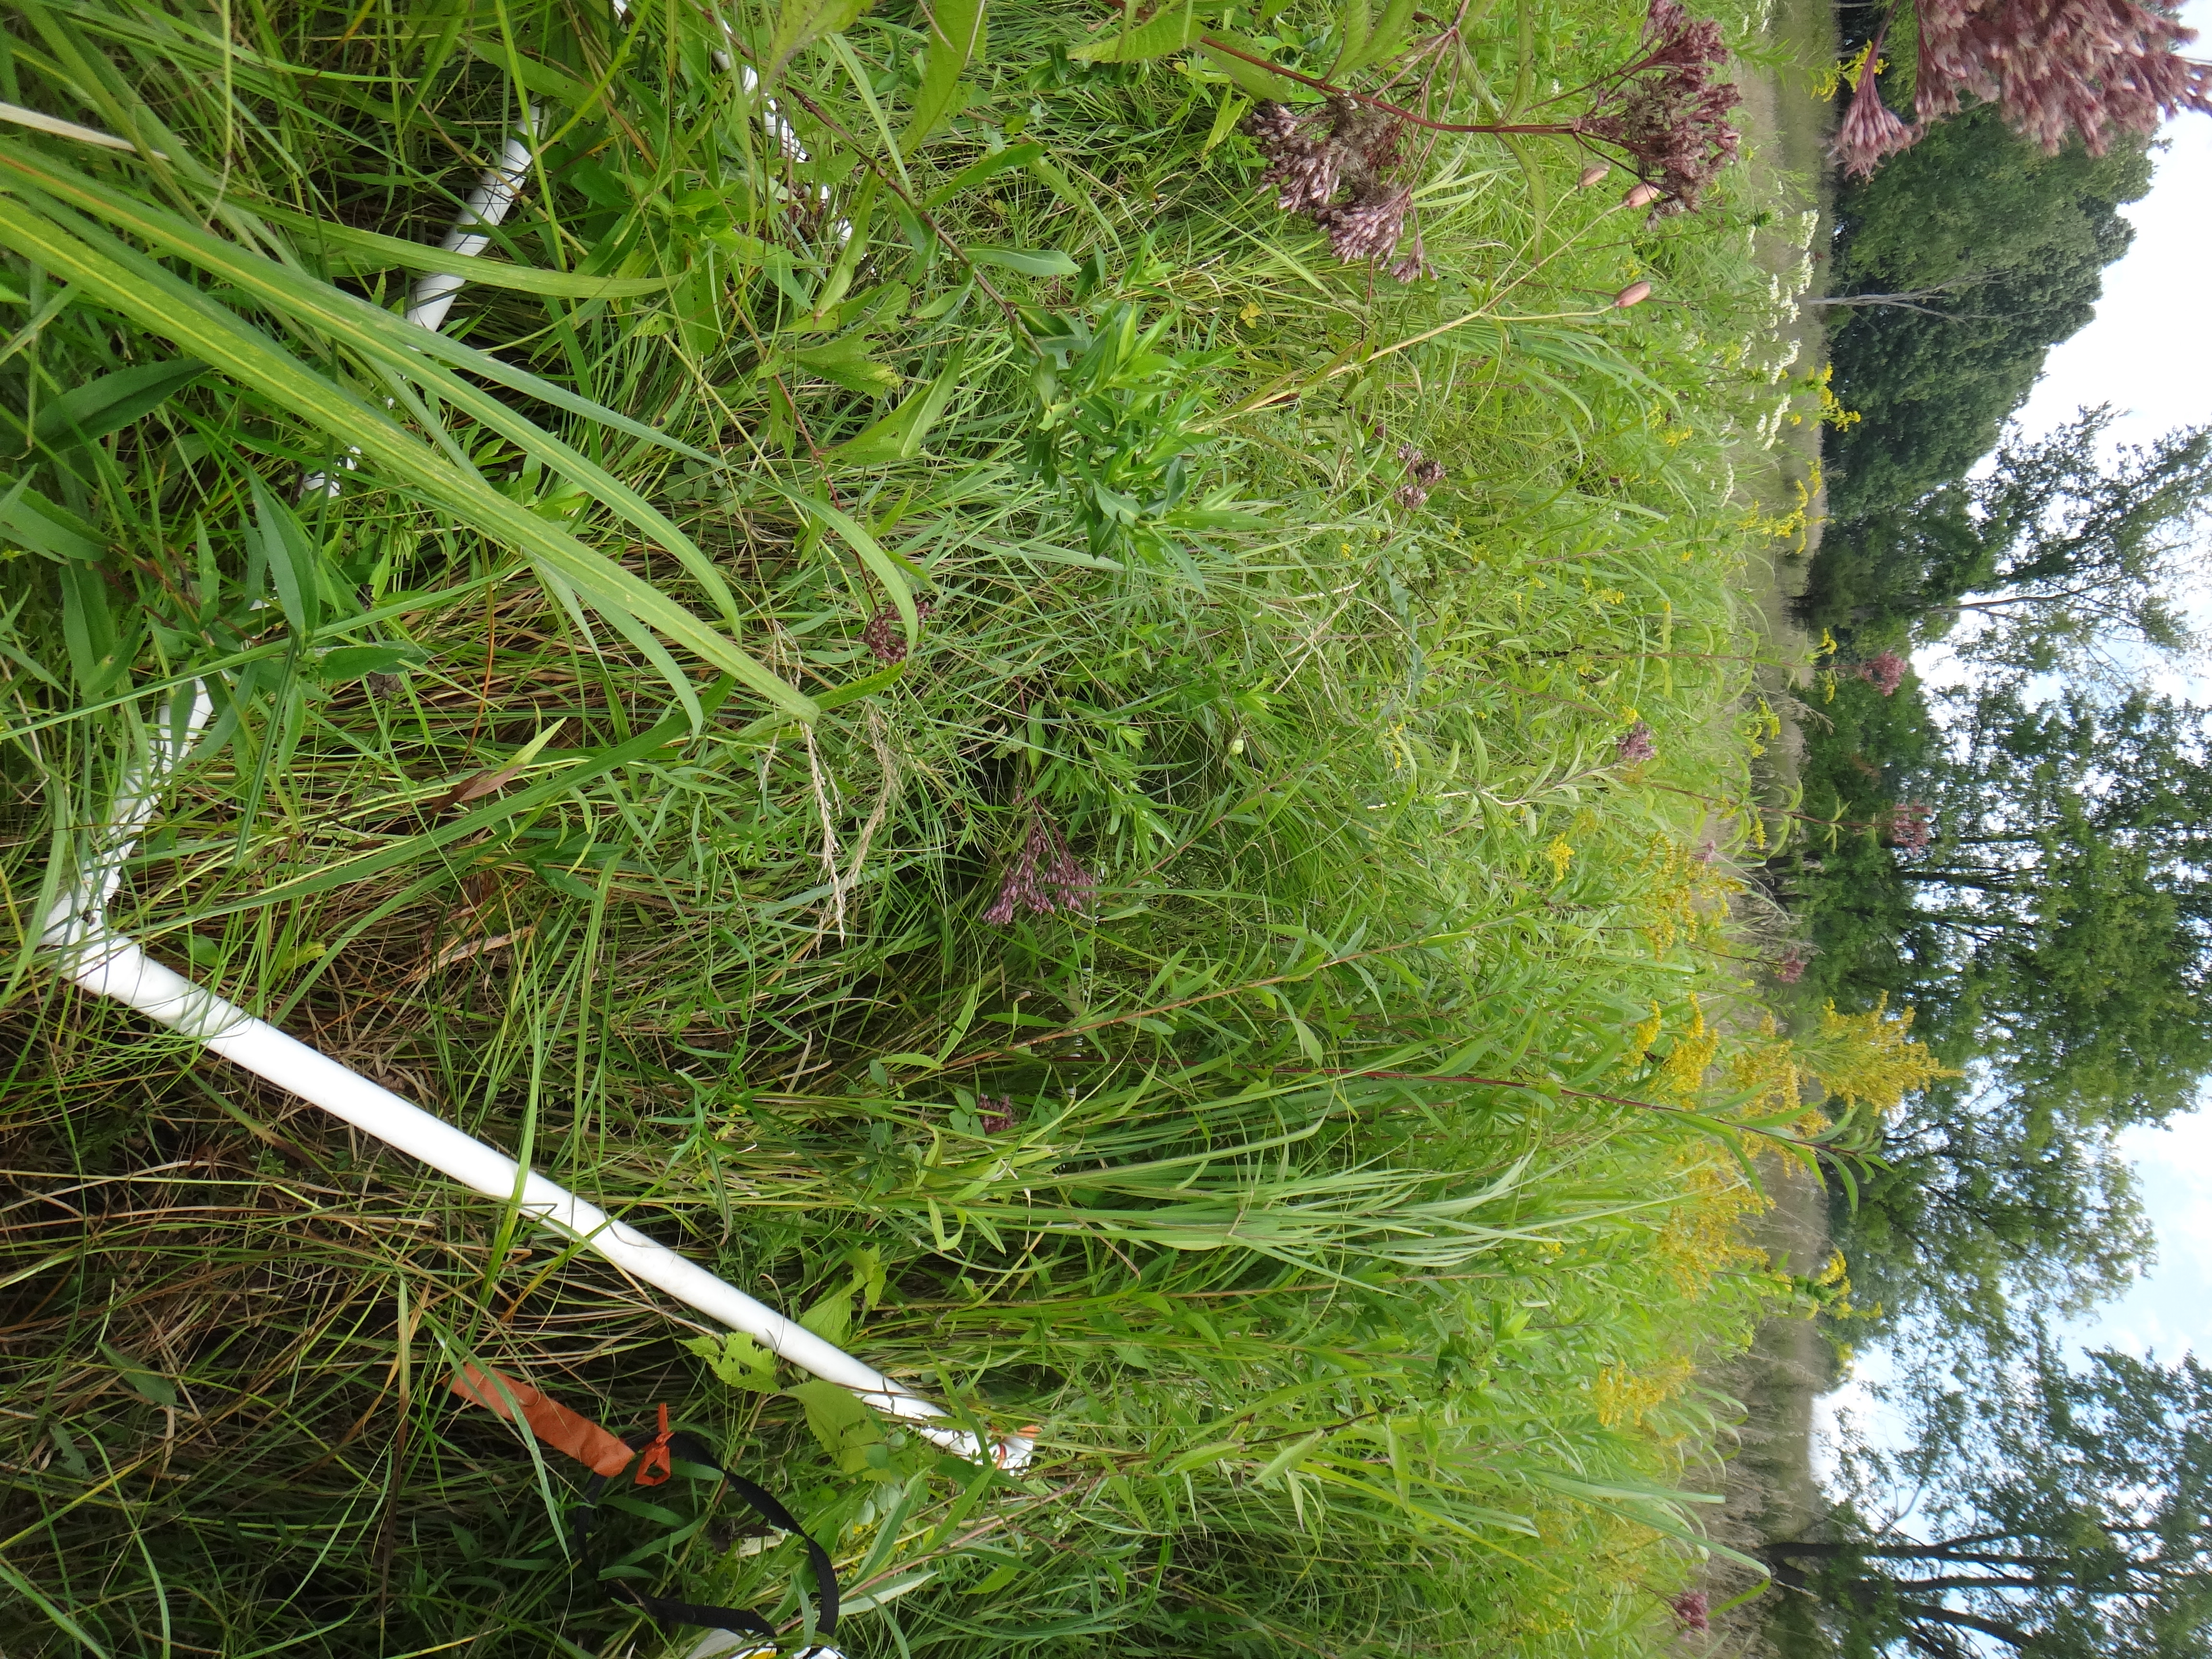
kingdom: Plantae
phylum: Tracheophyta
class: Magnoliopsida
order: Caryophyllales
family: Polygonaceae
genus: Persicaria
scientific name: Persicaria amphibia
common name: Amphibious bistort
